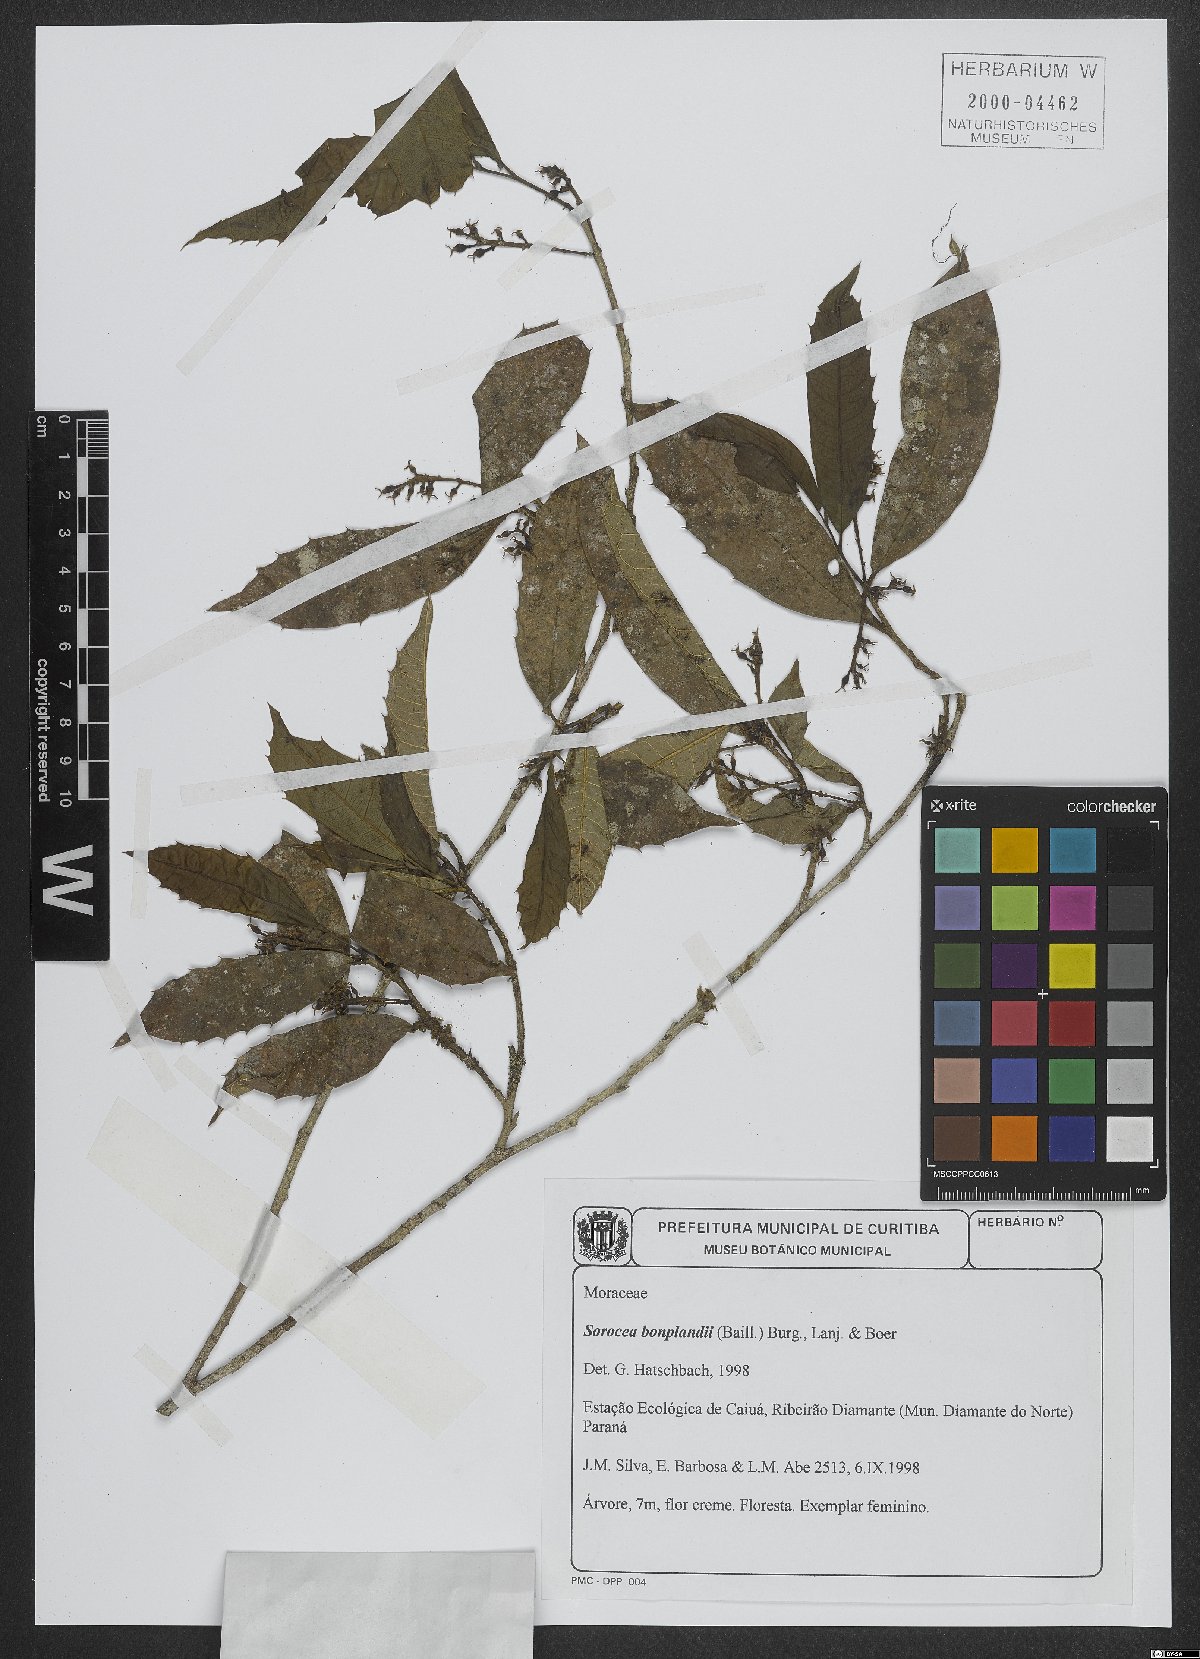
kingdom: Plantae
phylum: Tracheophyta
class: Magnoliopsida
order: Rosales
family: Moraceae
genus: Sorocea
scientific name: Sorocea bonplandii
